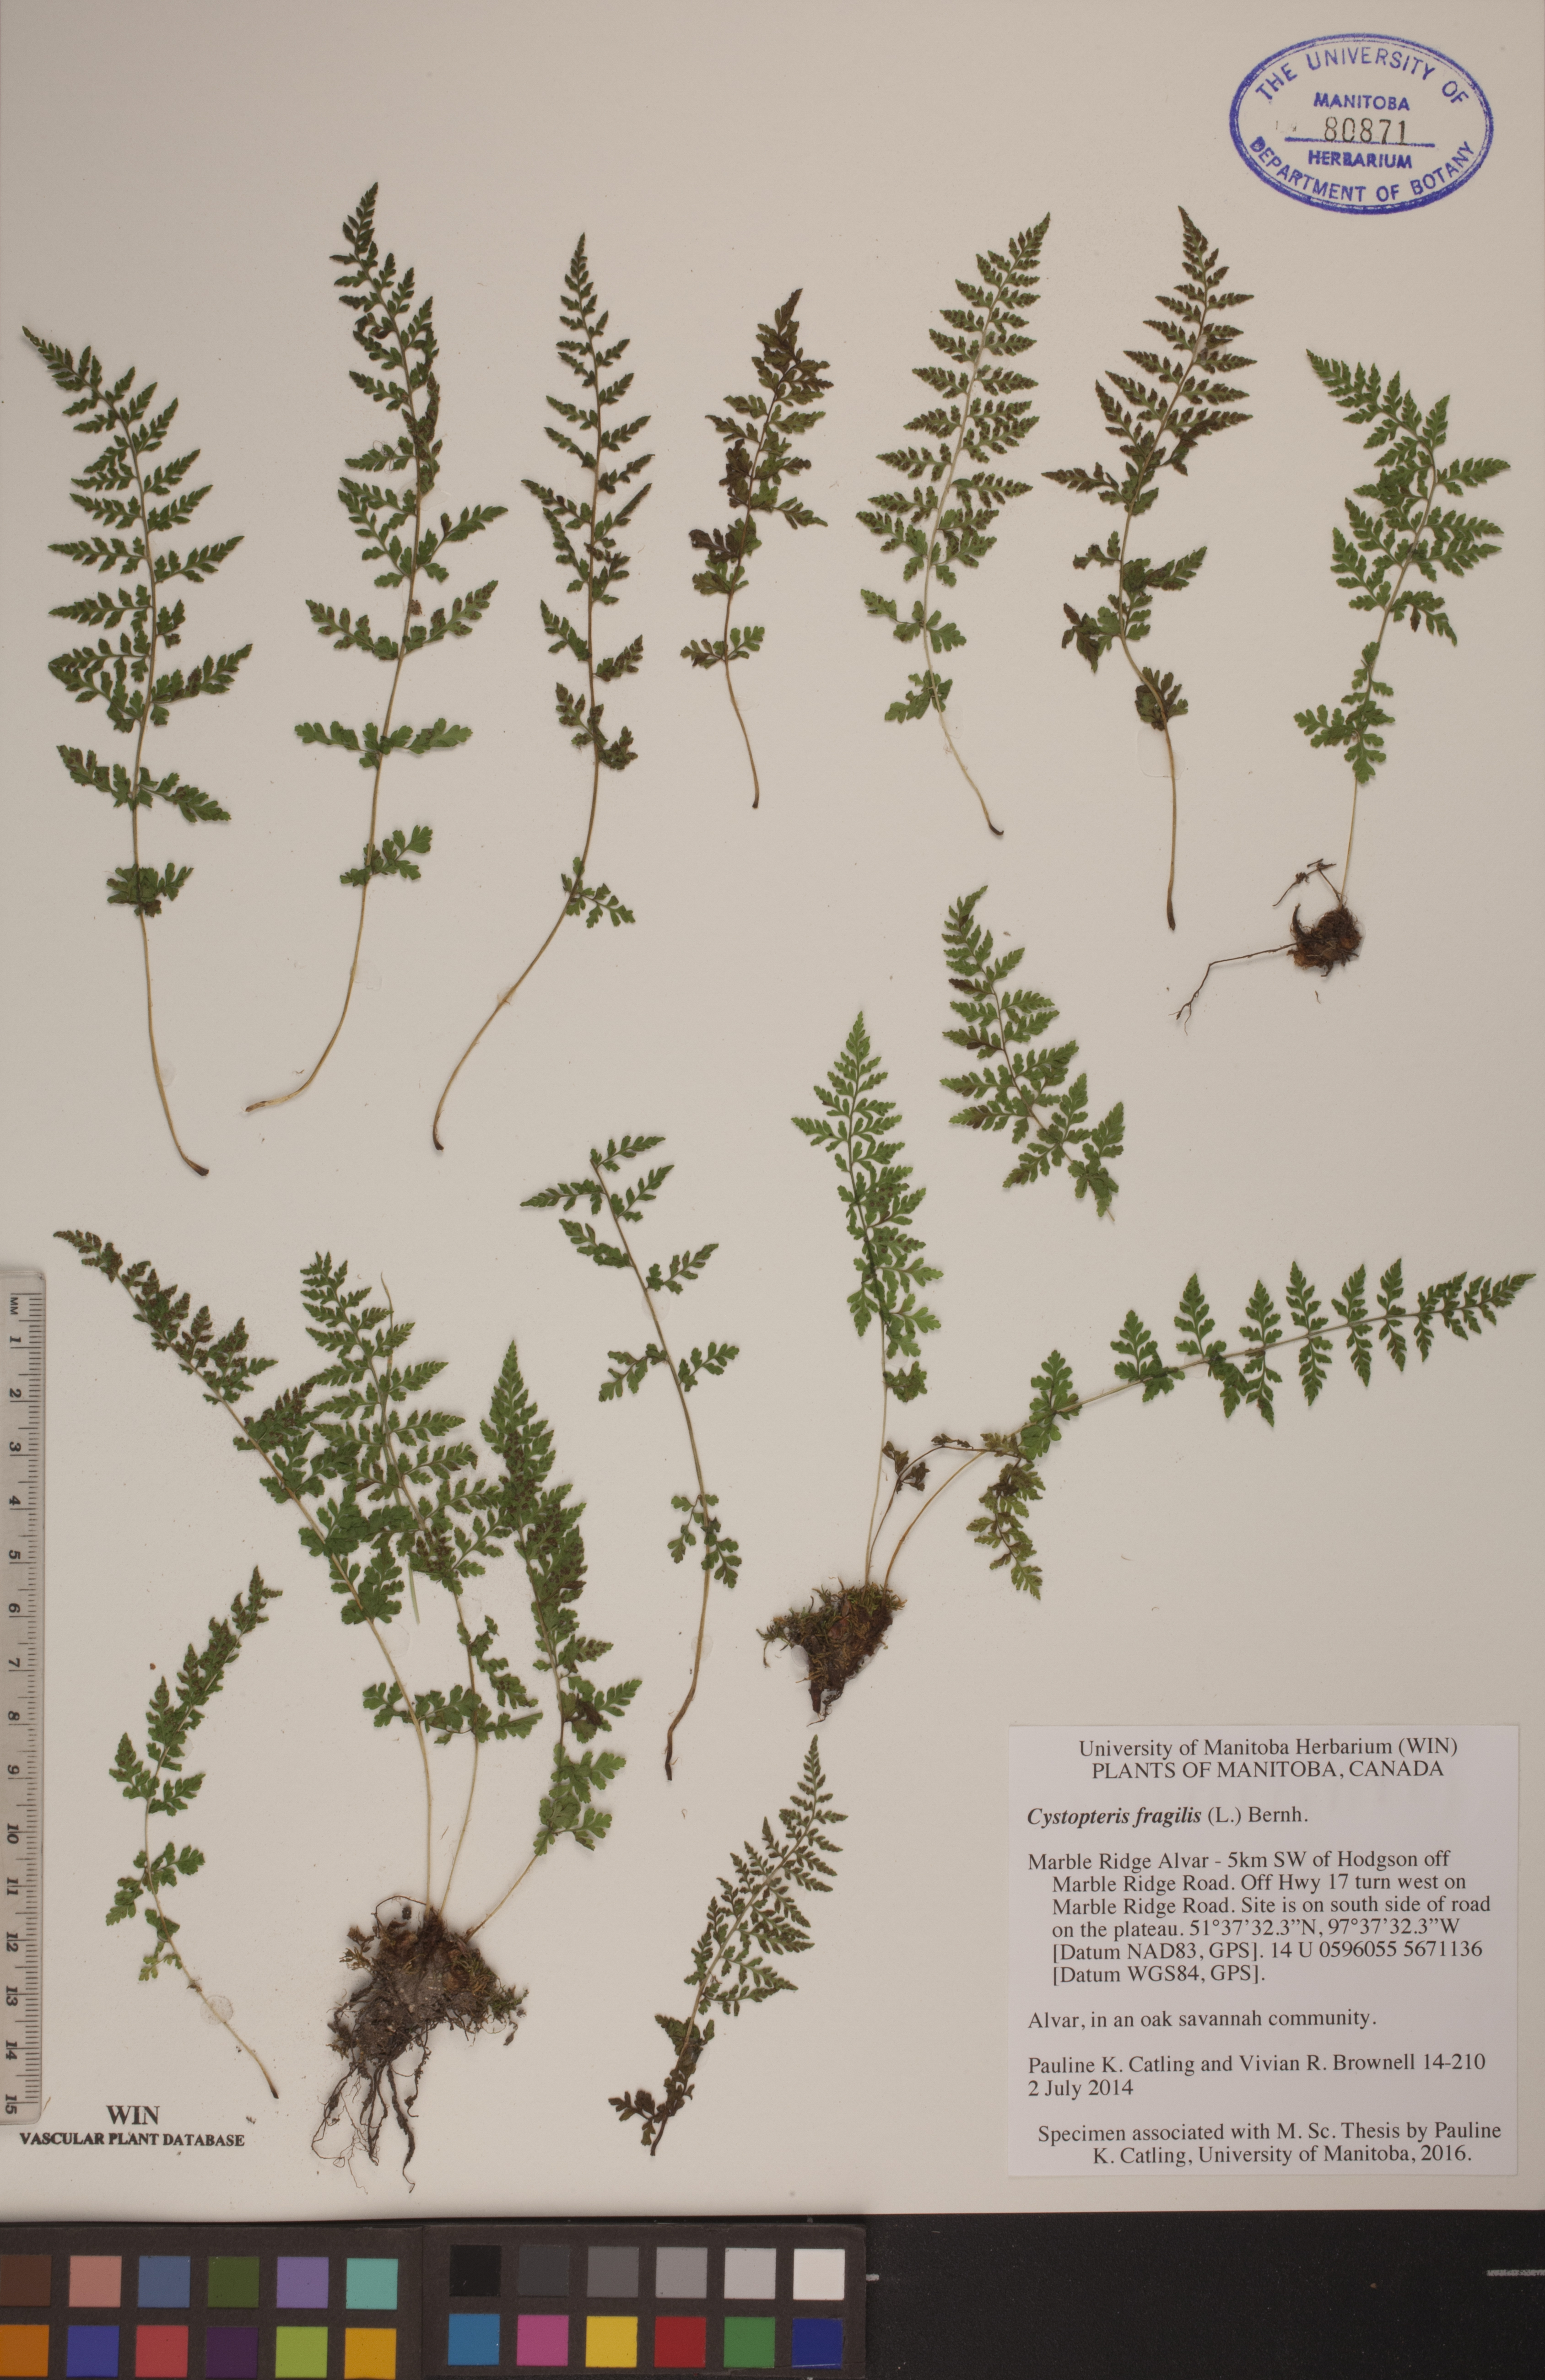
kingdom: Plantae
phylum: Tracheophyta
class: Polypodiopsida
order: Polypodiales
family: Cystopteridaceae
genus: Cystopteris
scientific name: Cystopteris fragilis
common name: Brittle bladder fern
